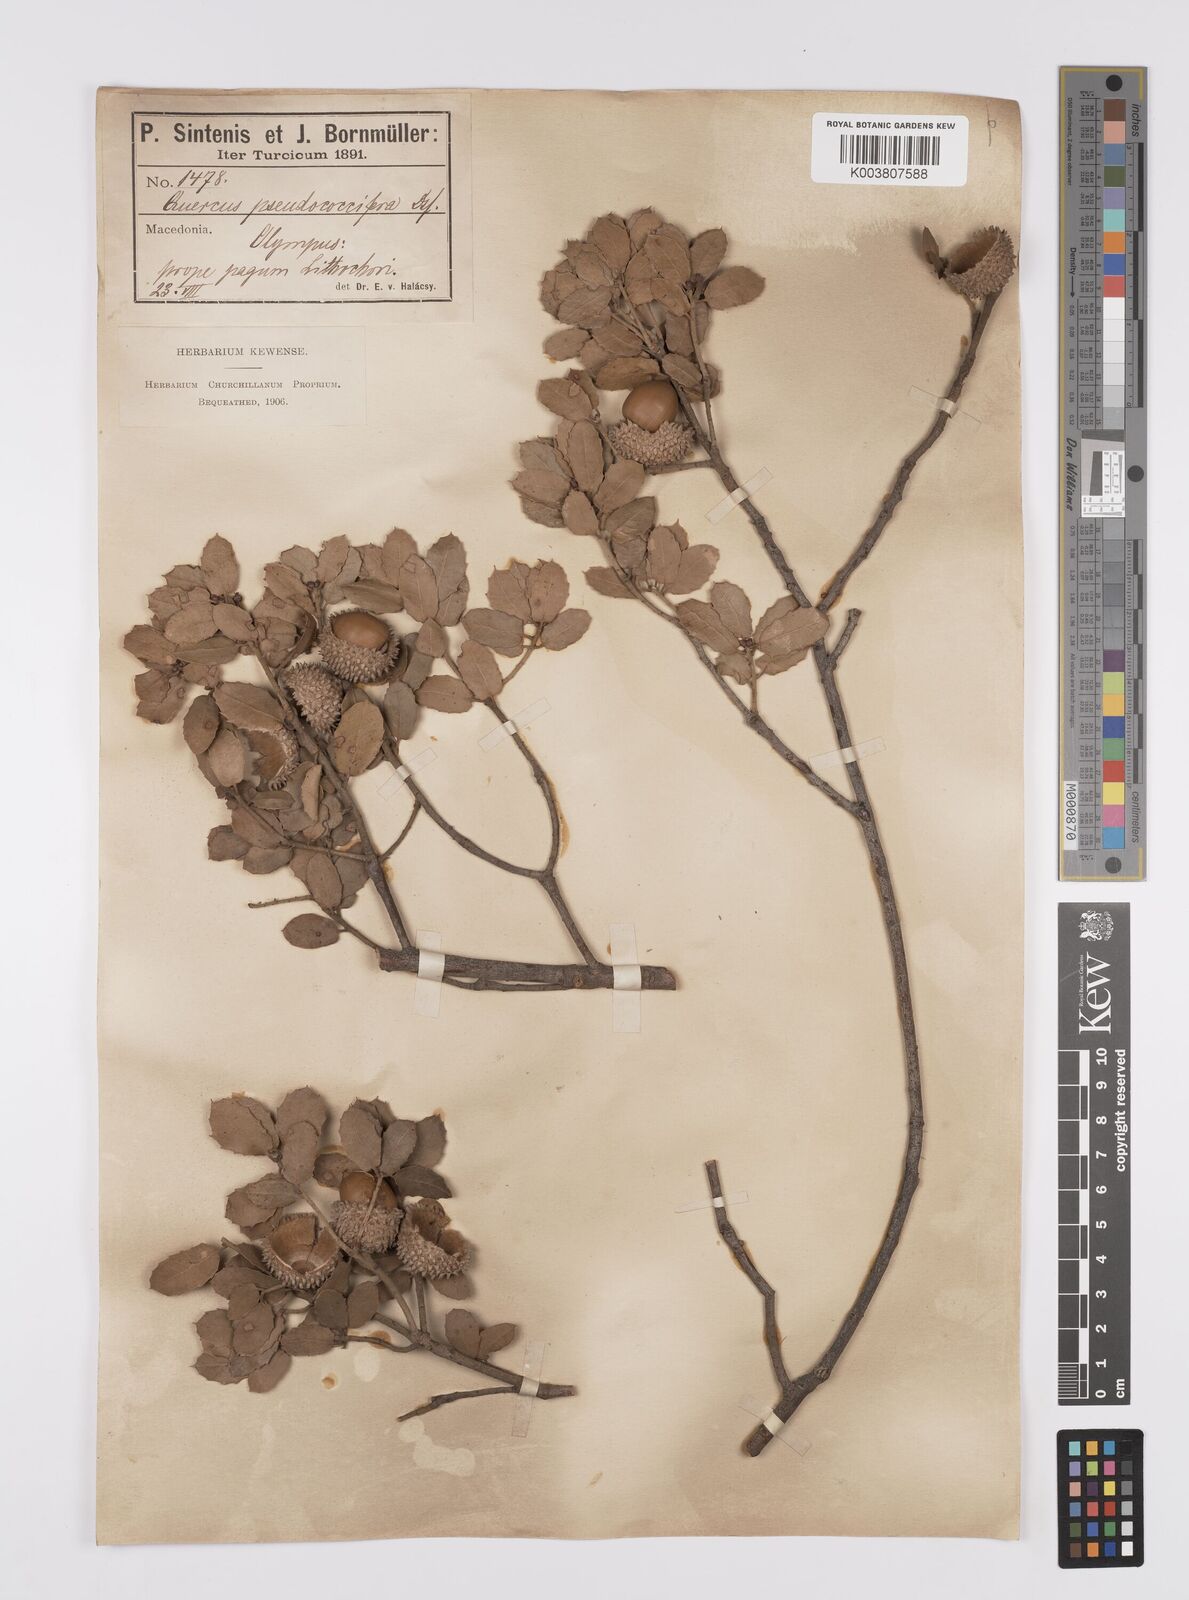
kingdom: Plantae
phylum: Tracheophyta
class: Magnoliopsida
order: Fagales
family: Fagaceae
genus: Quercus
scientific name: Quercus coccifera
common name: Kermes oak
